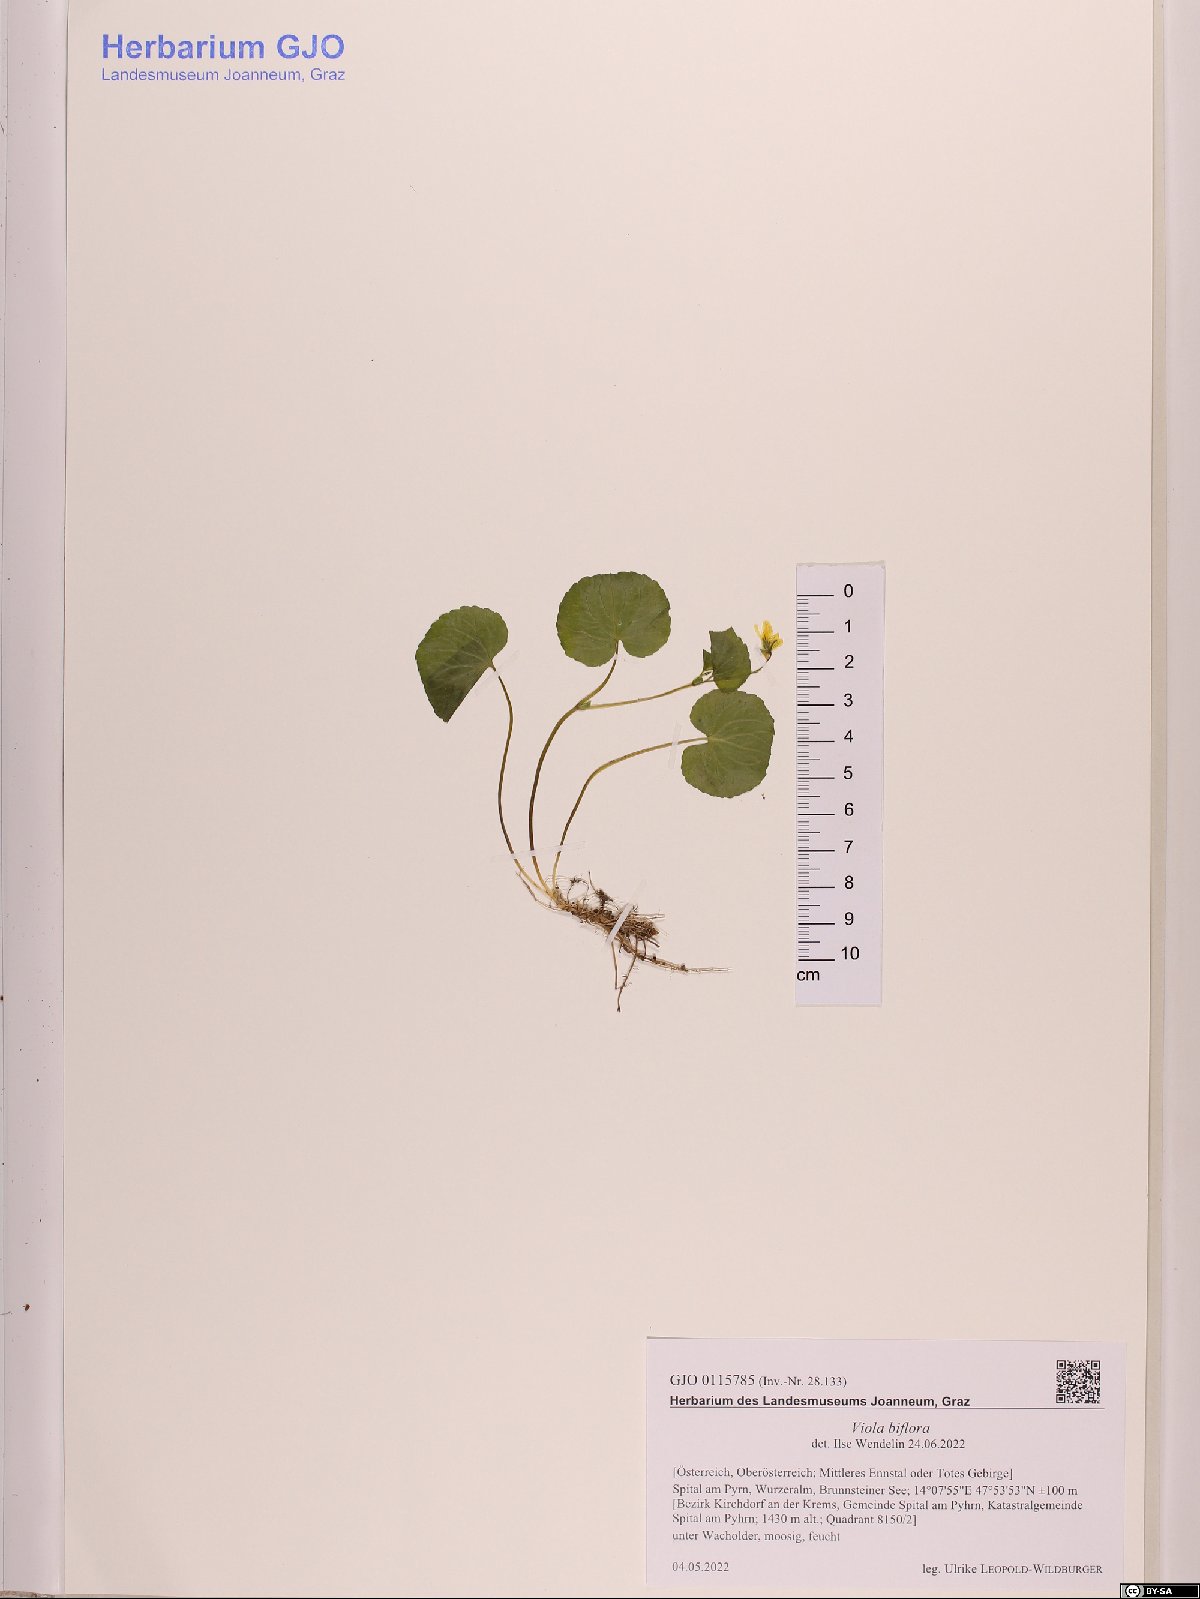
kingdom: Plantae
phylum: Tracheophyta
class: Magnoliopsida
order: Malpighiales
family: Violaceae
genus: Viola
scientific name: Viola biflora
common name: Alpine yellow violet
